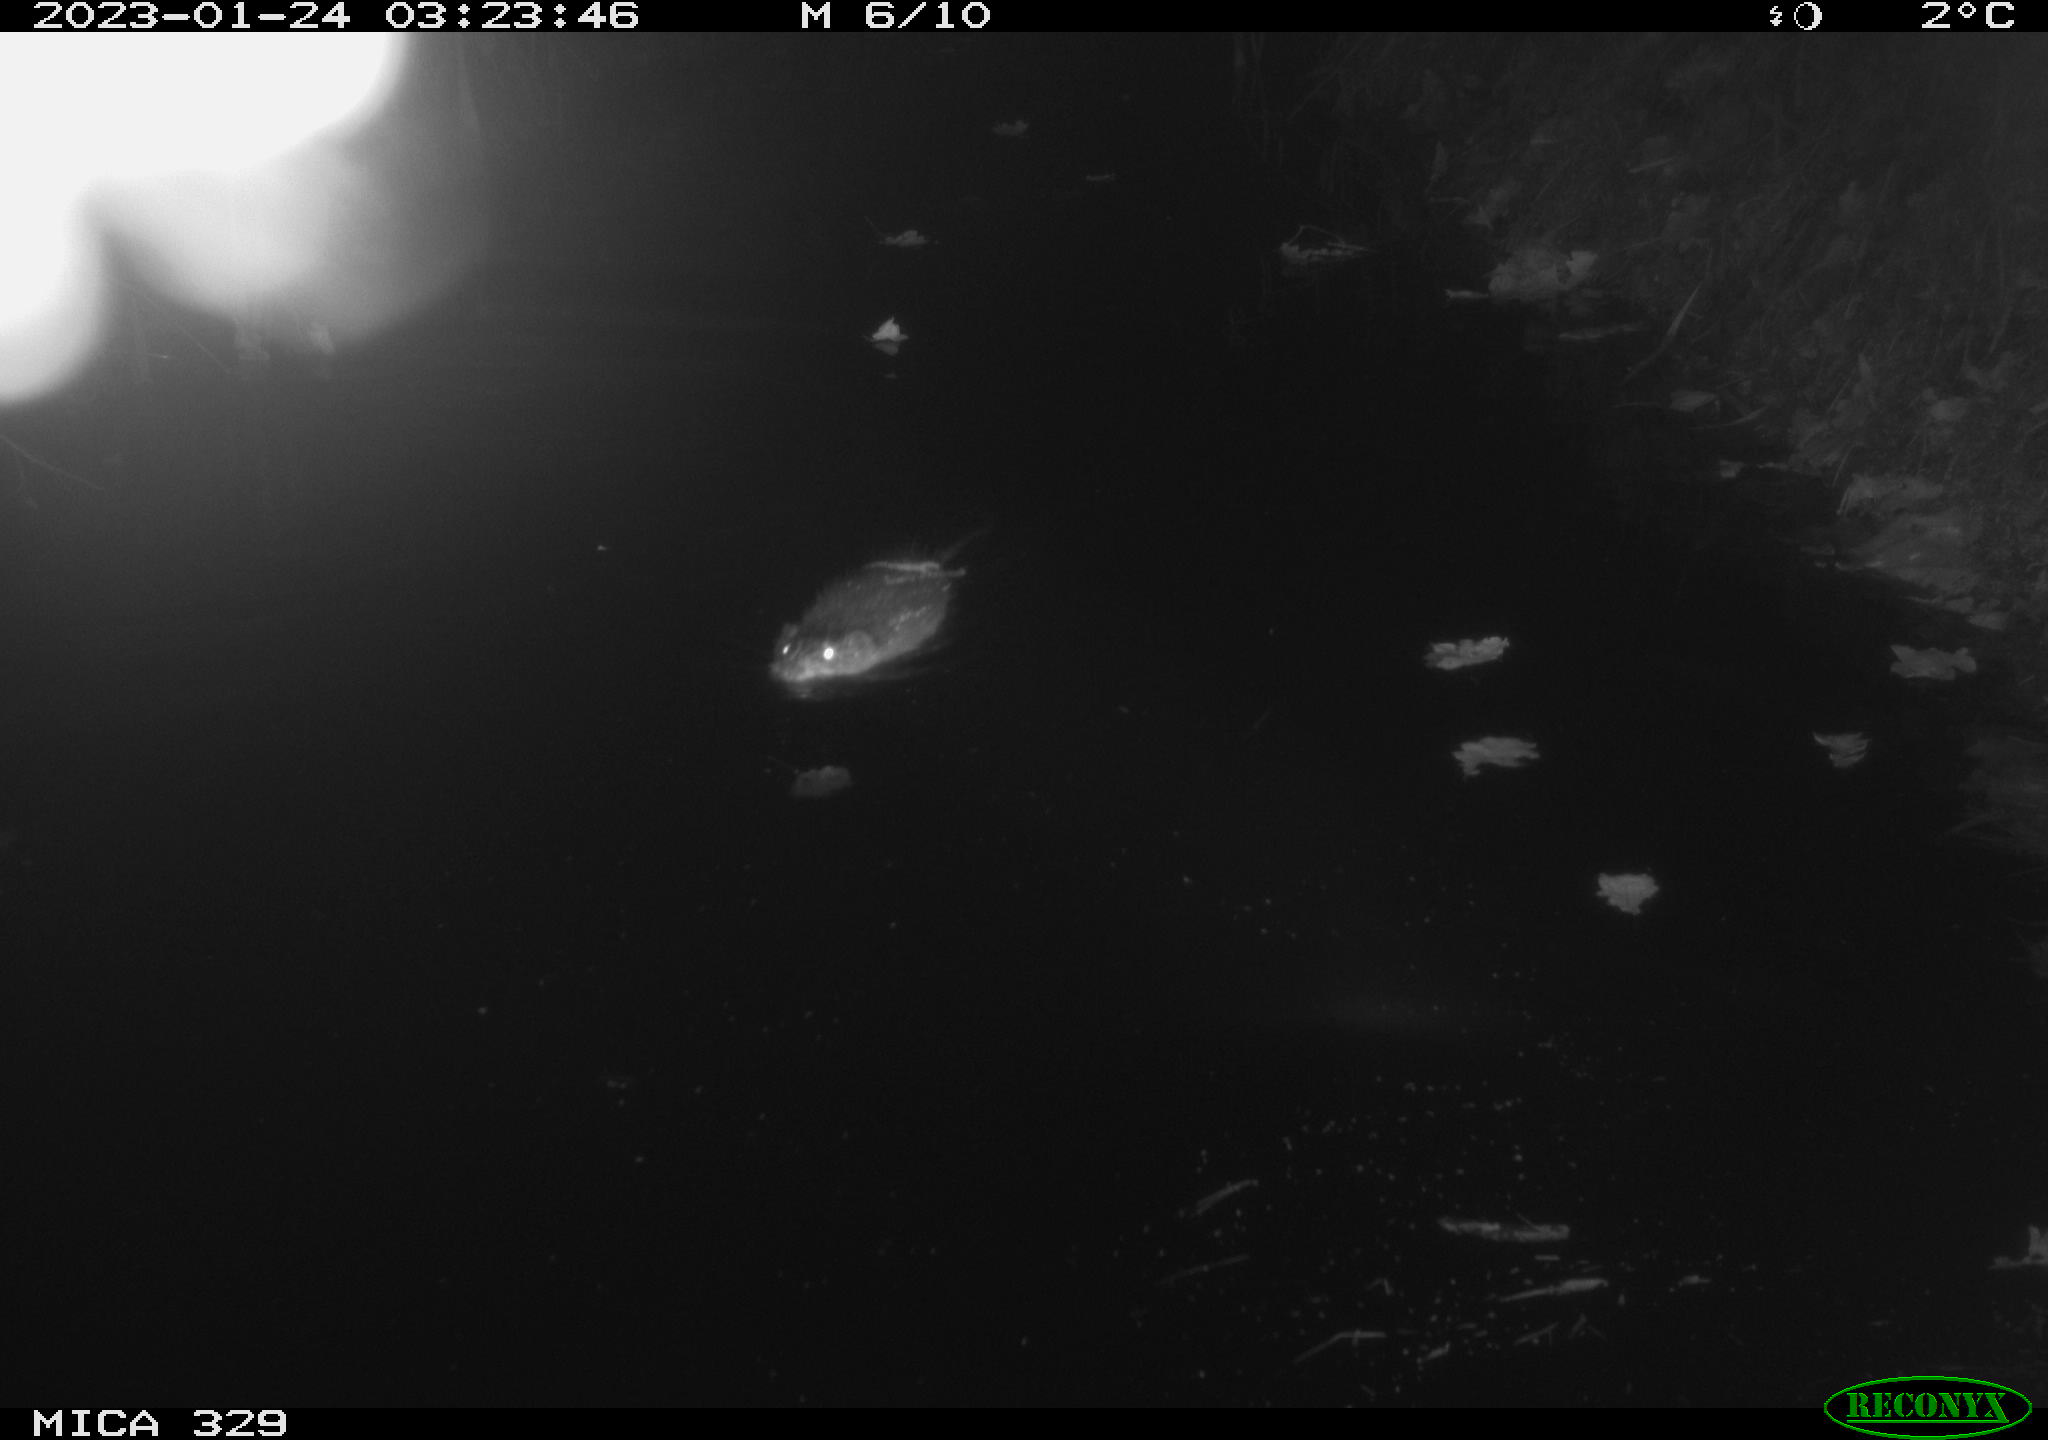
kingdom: Animalia
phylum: Chordata
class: Mammalia
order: Rodentia
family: Cricetidae
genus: Ondatra
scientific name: Ondatra zibethicus
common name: Muskrat
